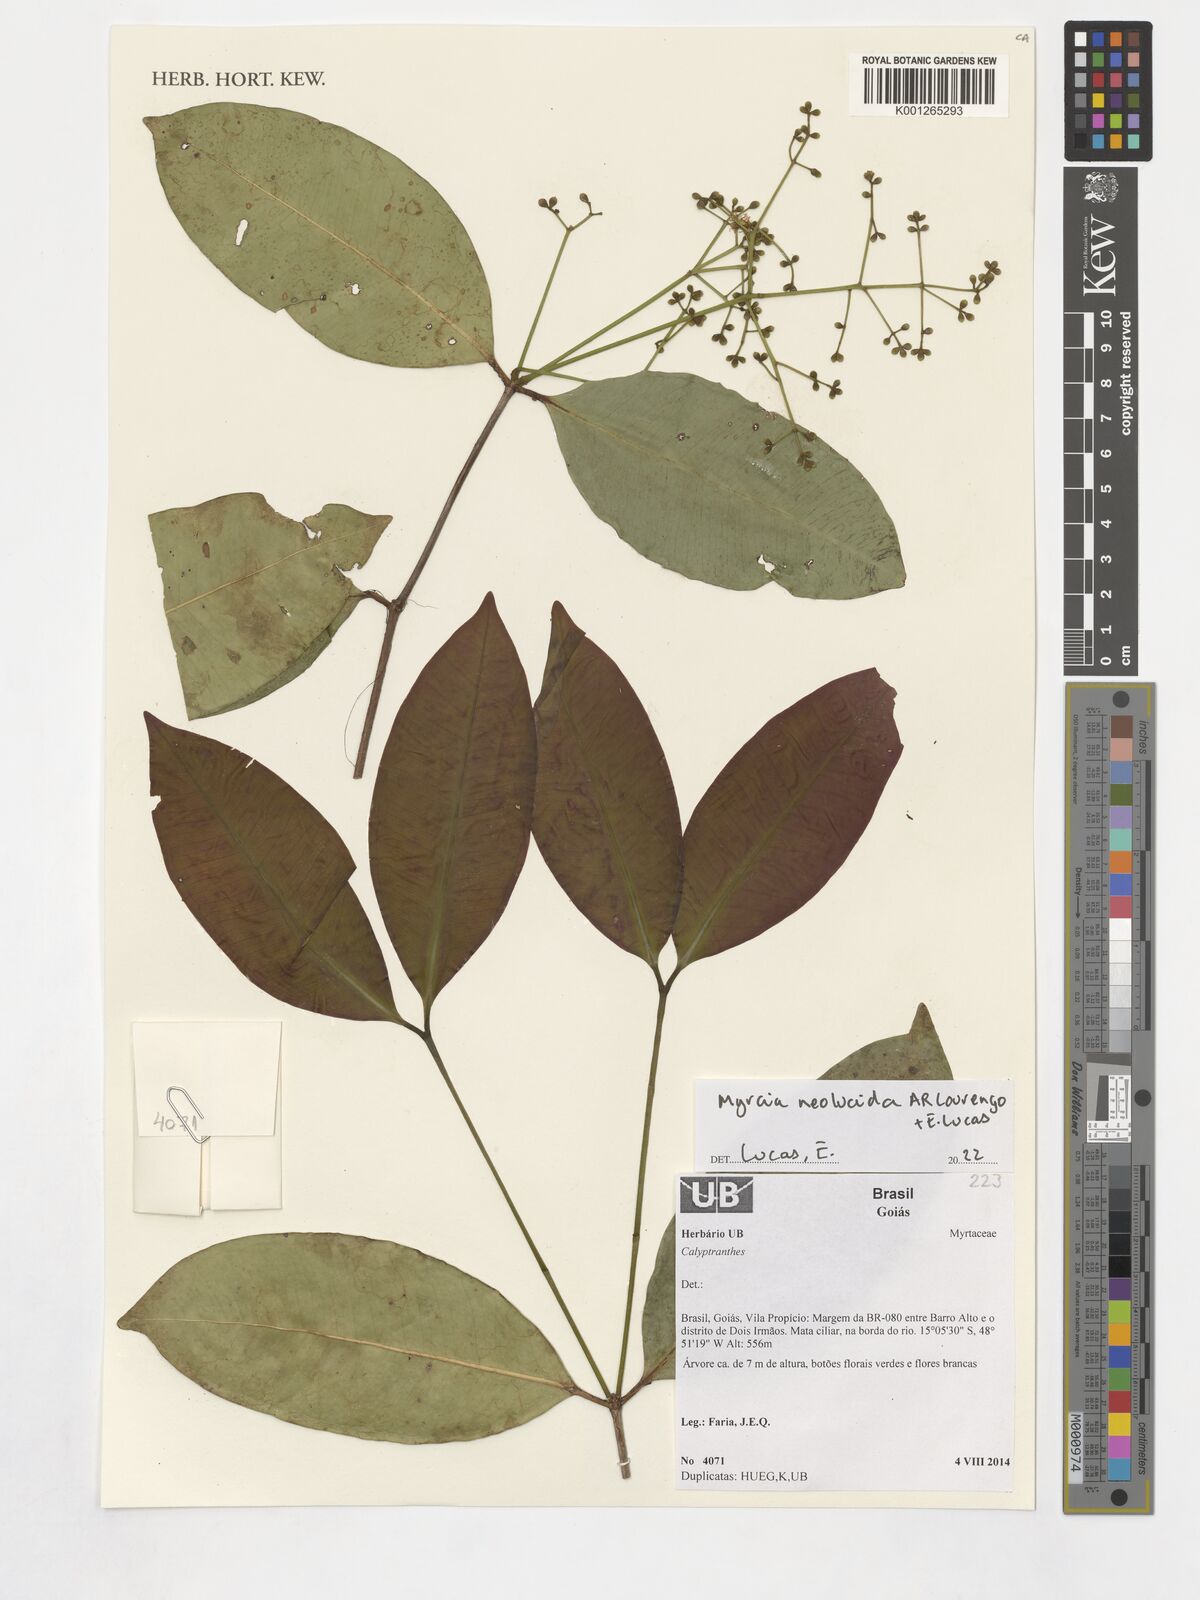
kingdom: Plantae
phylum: Tracheophyta
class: Magnoliopsida
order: Myrtales
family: Myrtaceae
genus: Myrcia
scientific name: Myrcia neolucida
